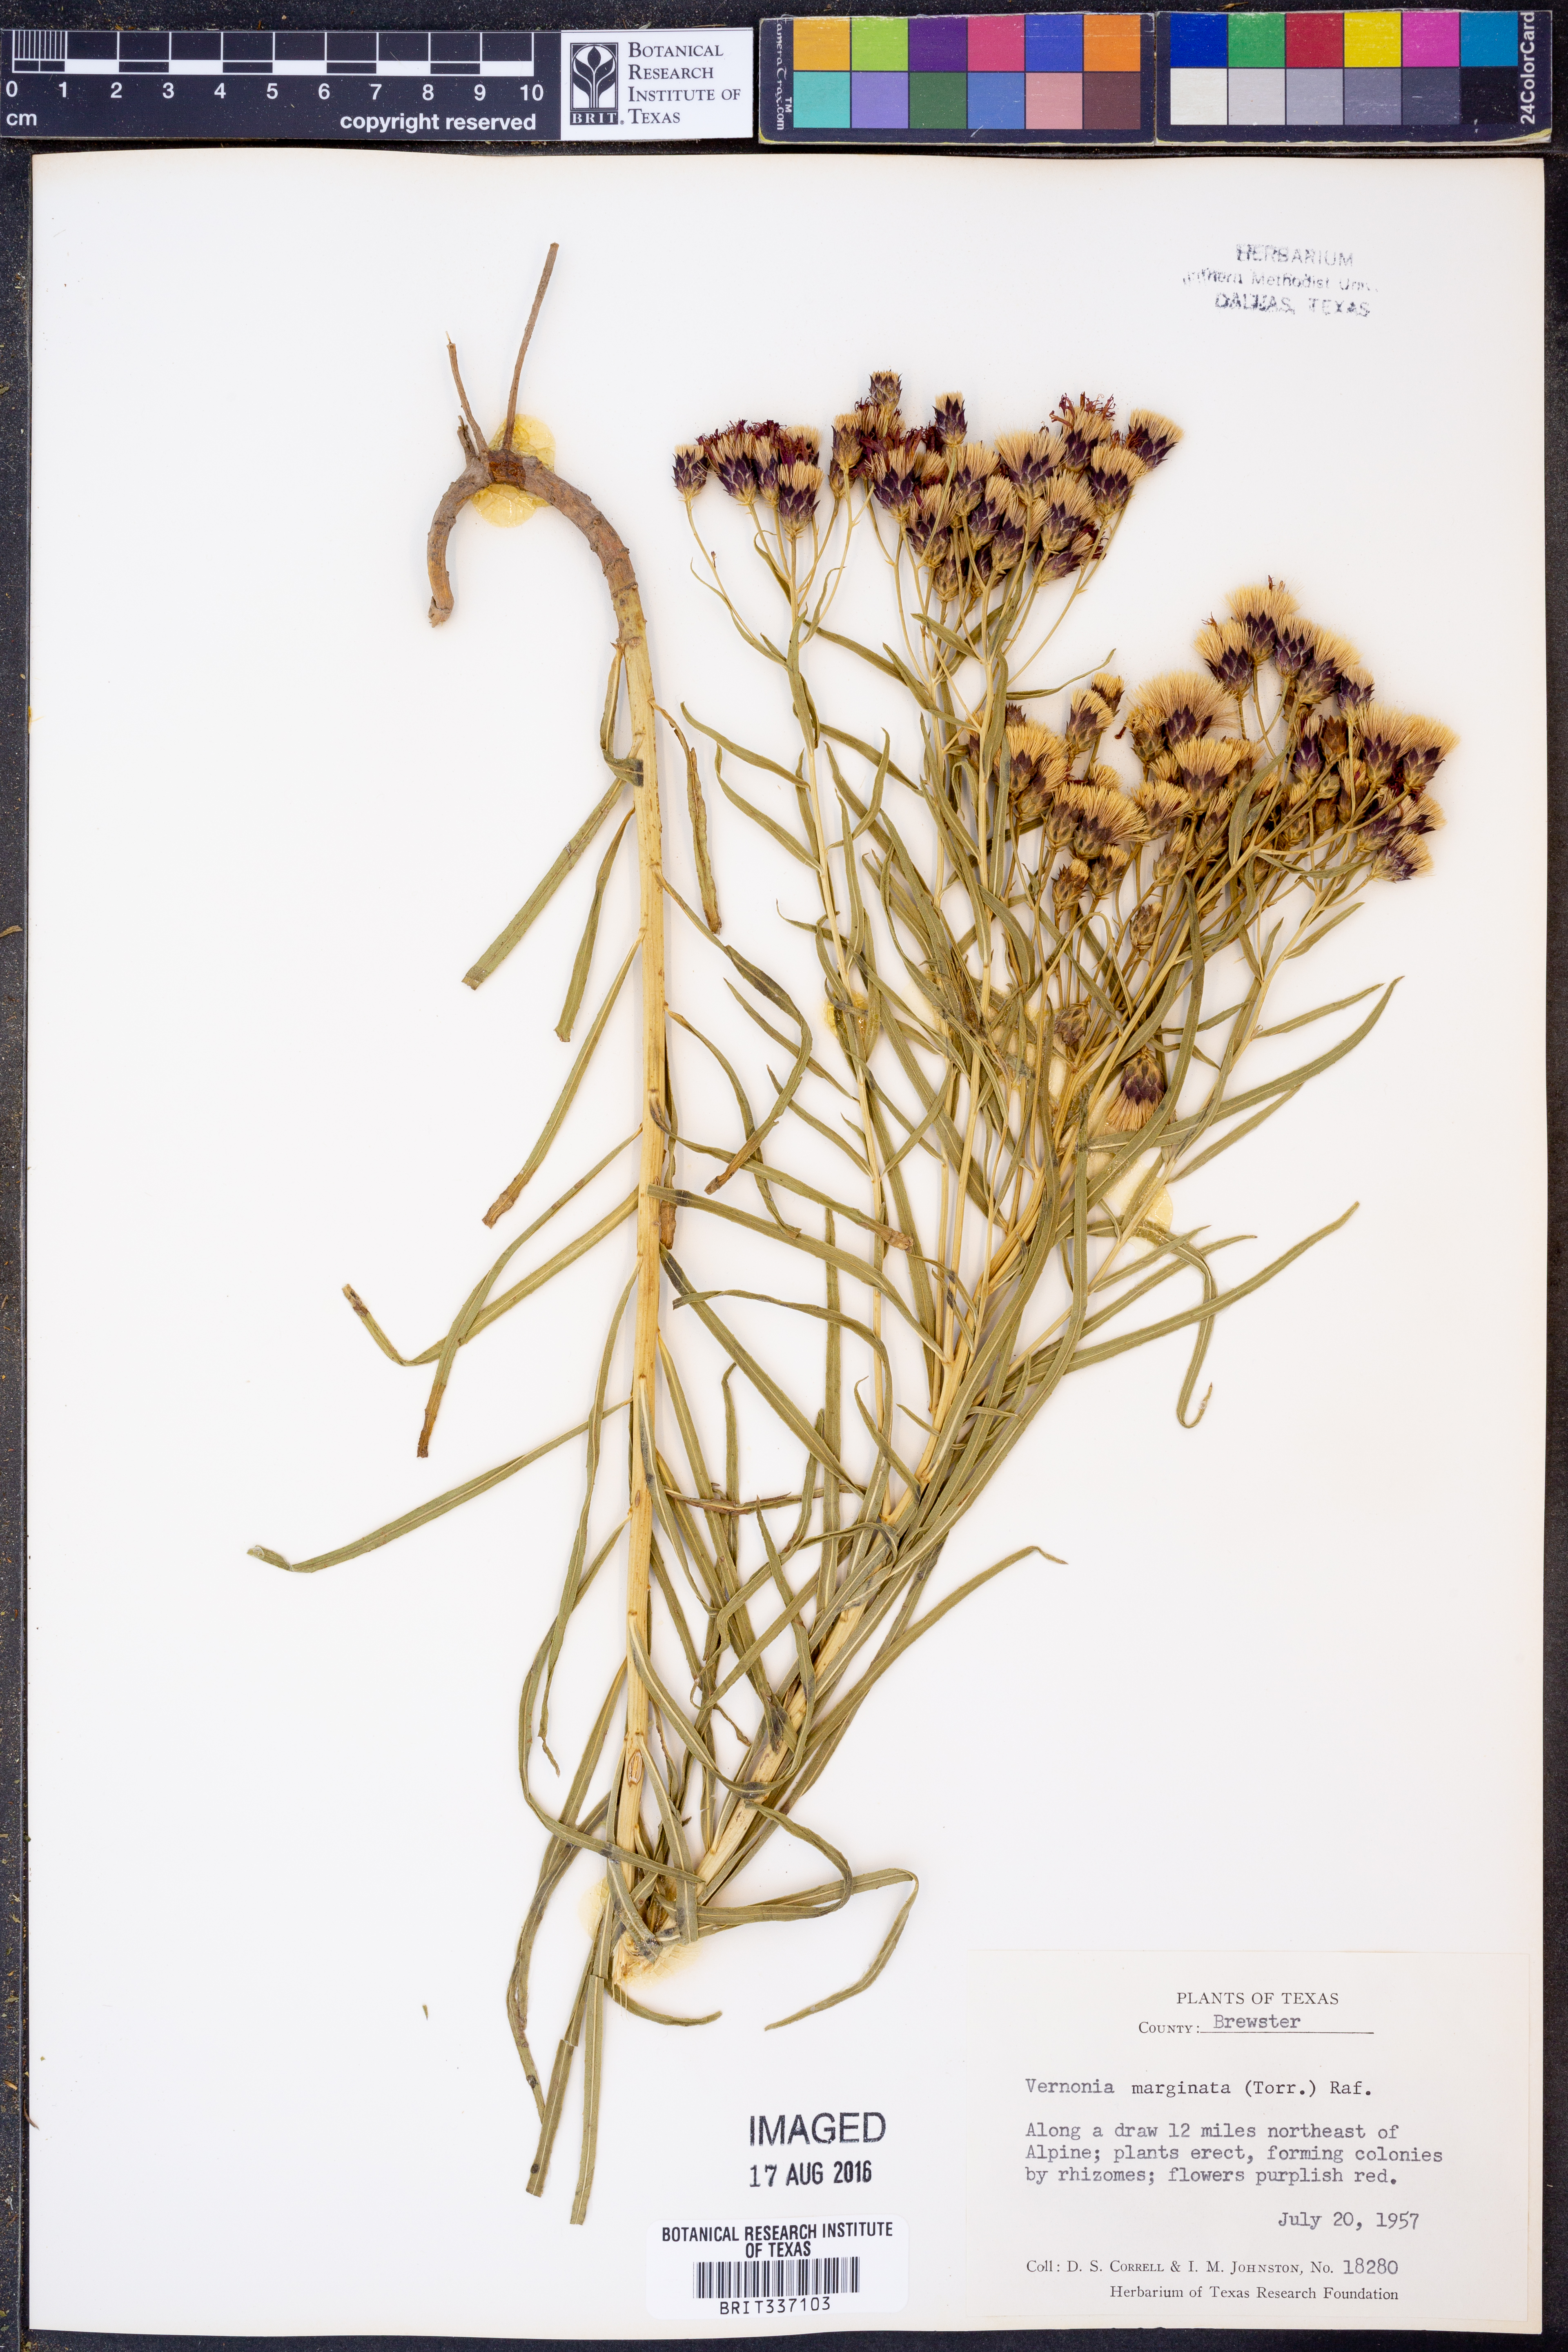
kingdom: Plantae
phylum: Tracheophyta
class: Magnoliopsida
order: Asterales
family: Asteraceae
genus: Vernonia
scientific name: Vernonia marginata
